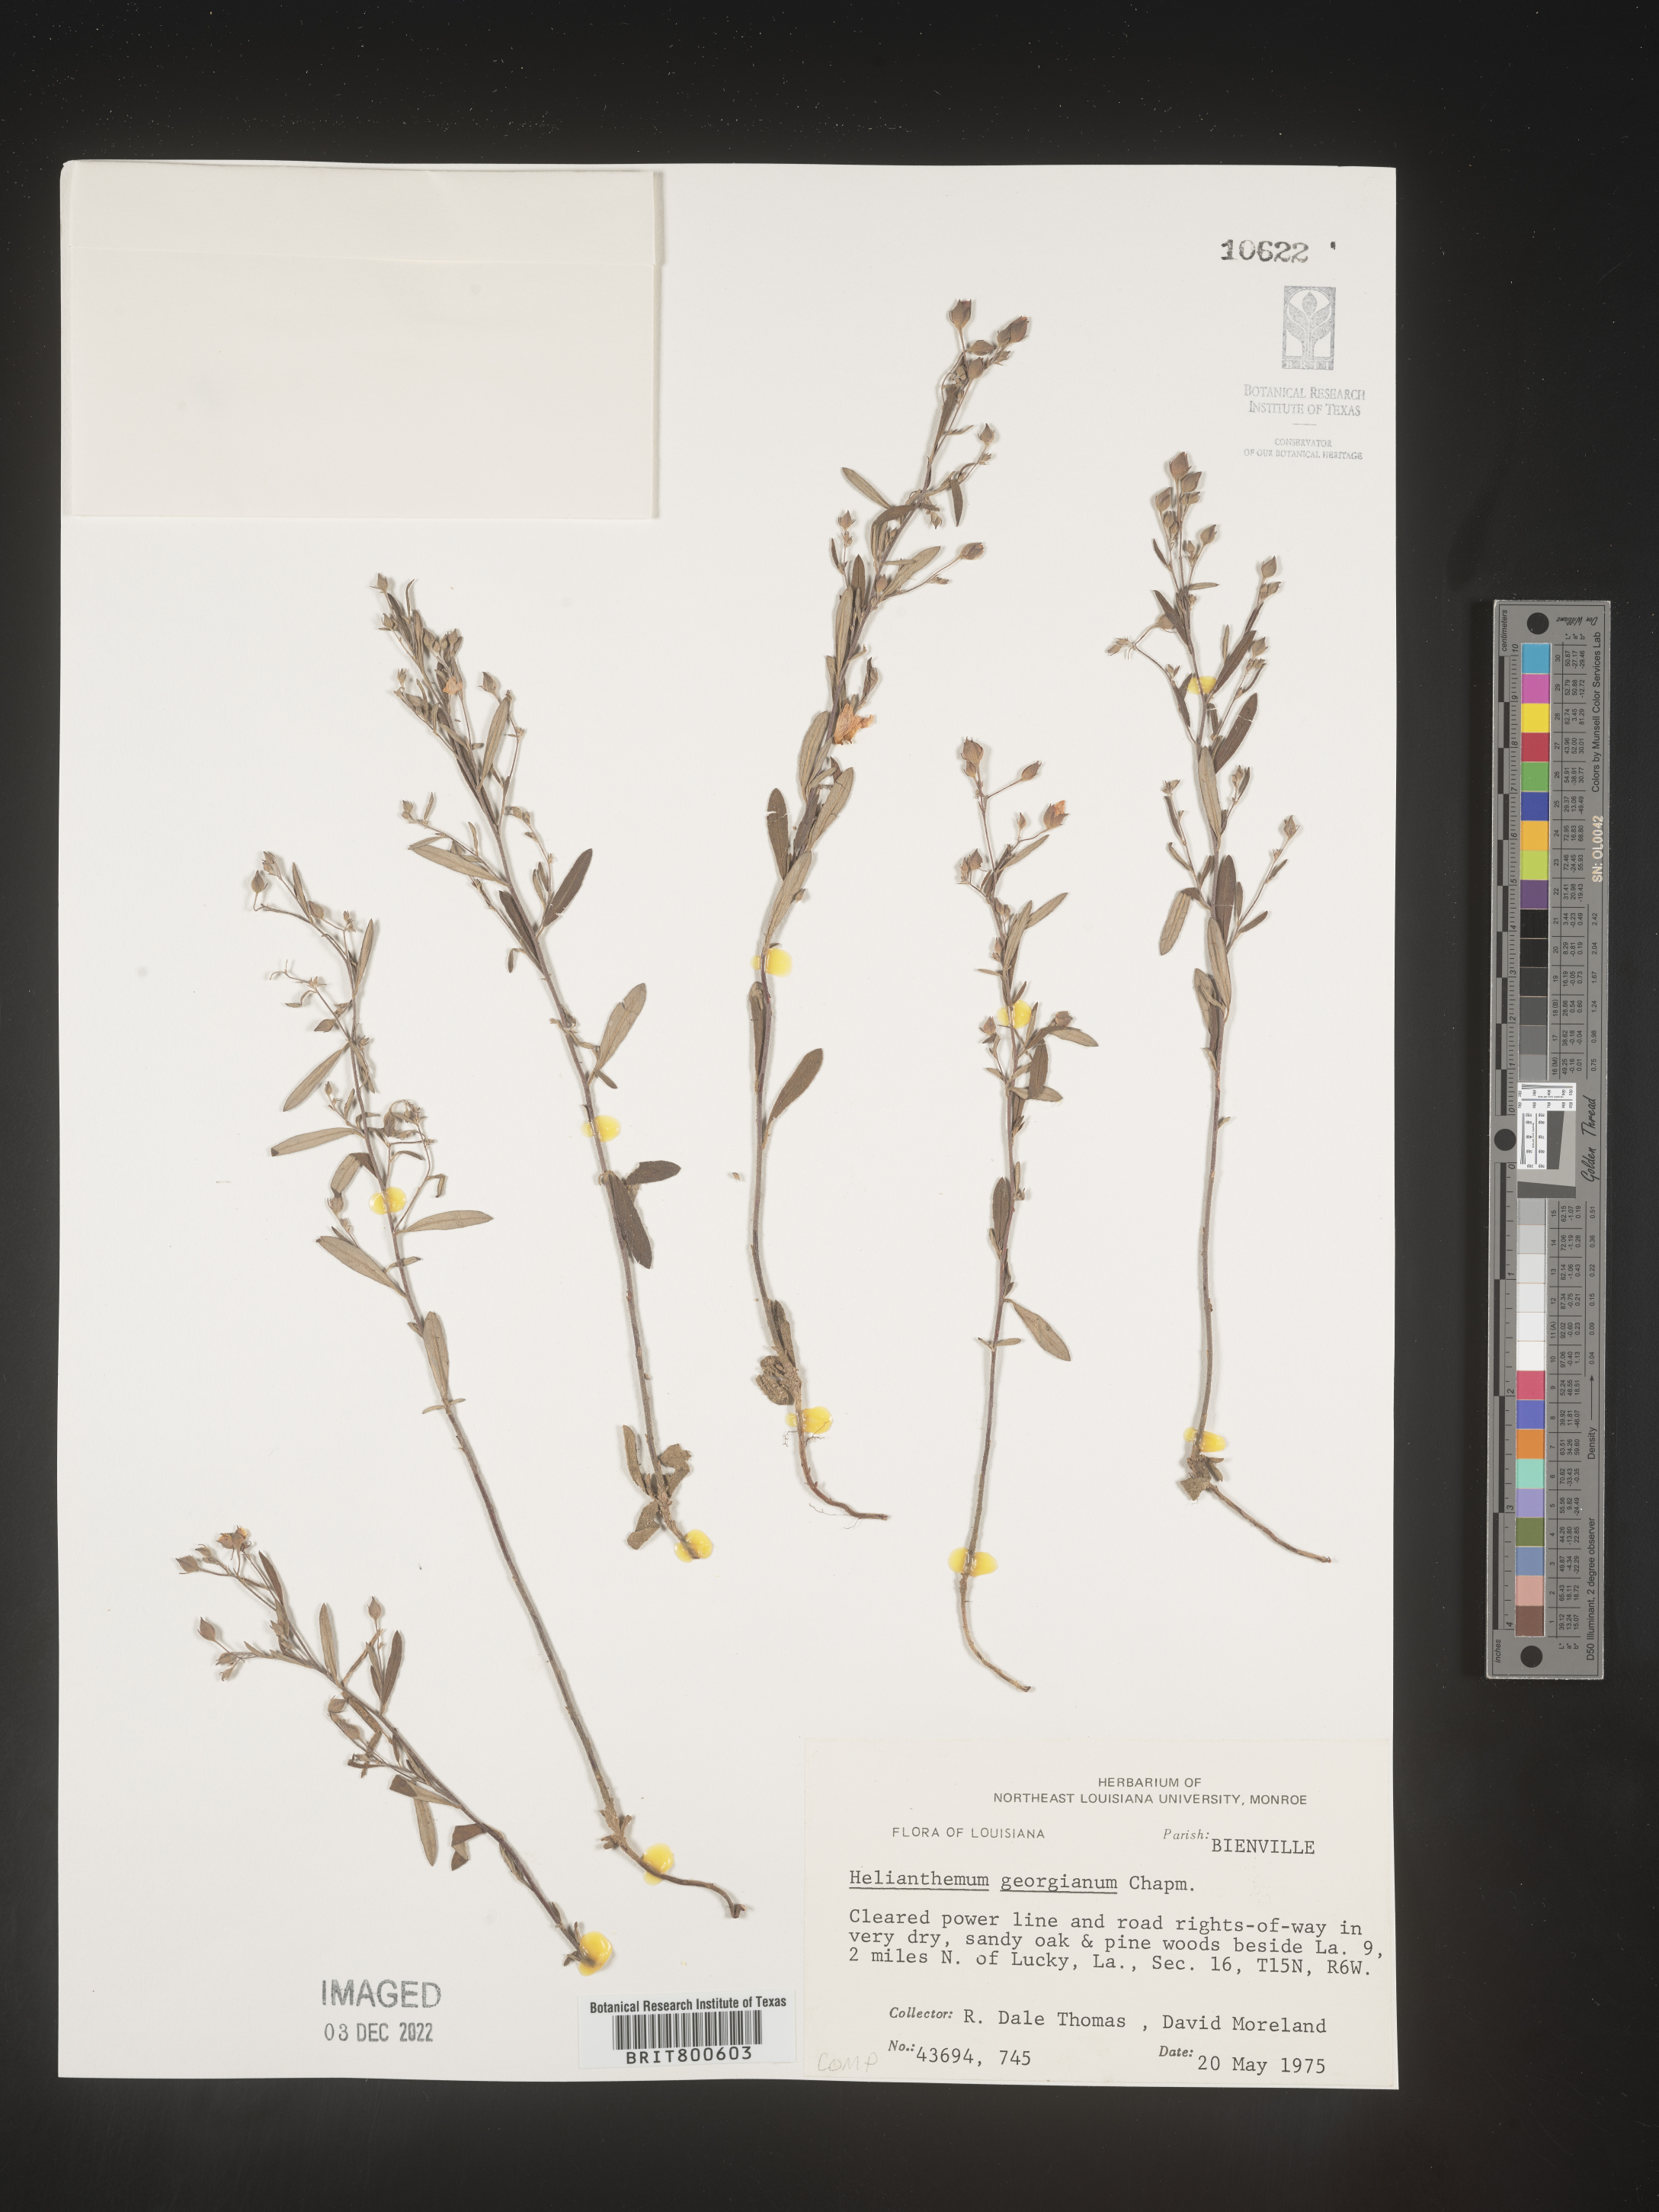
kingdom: Plantae
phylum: Tracheophyta
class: Magnoliopsida
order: Malvales
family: Cistaceae
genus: Crocanthemum
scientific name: Crocanthemum georgianum
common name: Georgia frostweed
